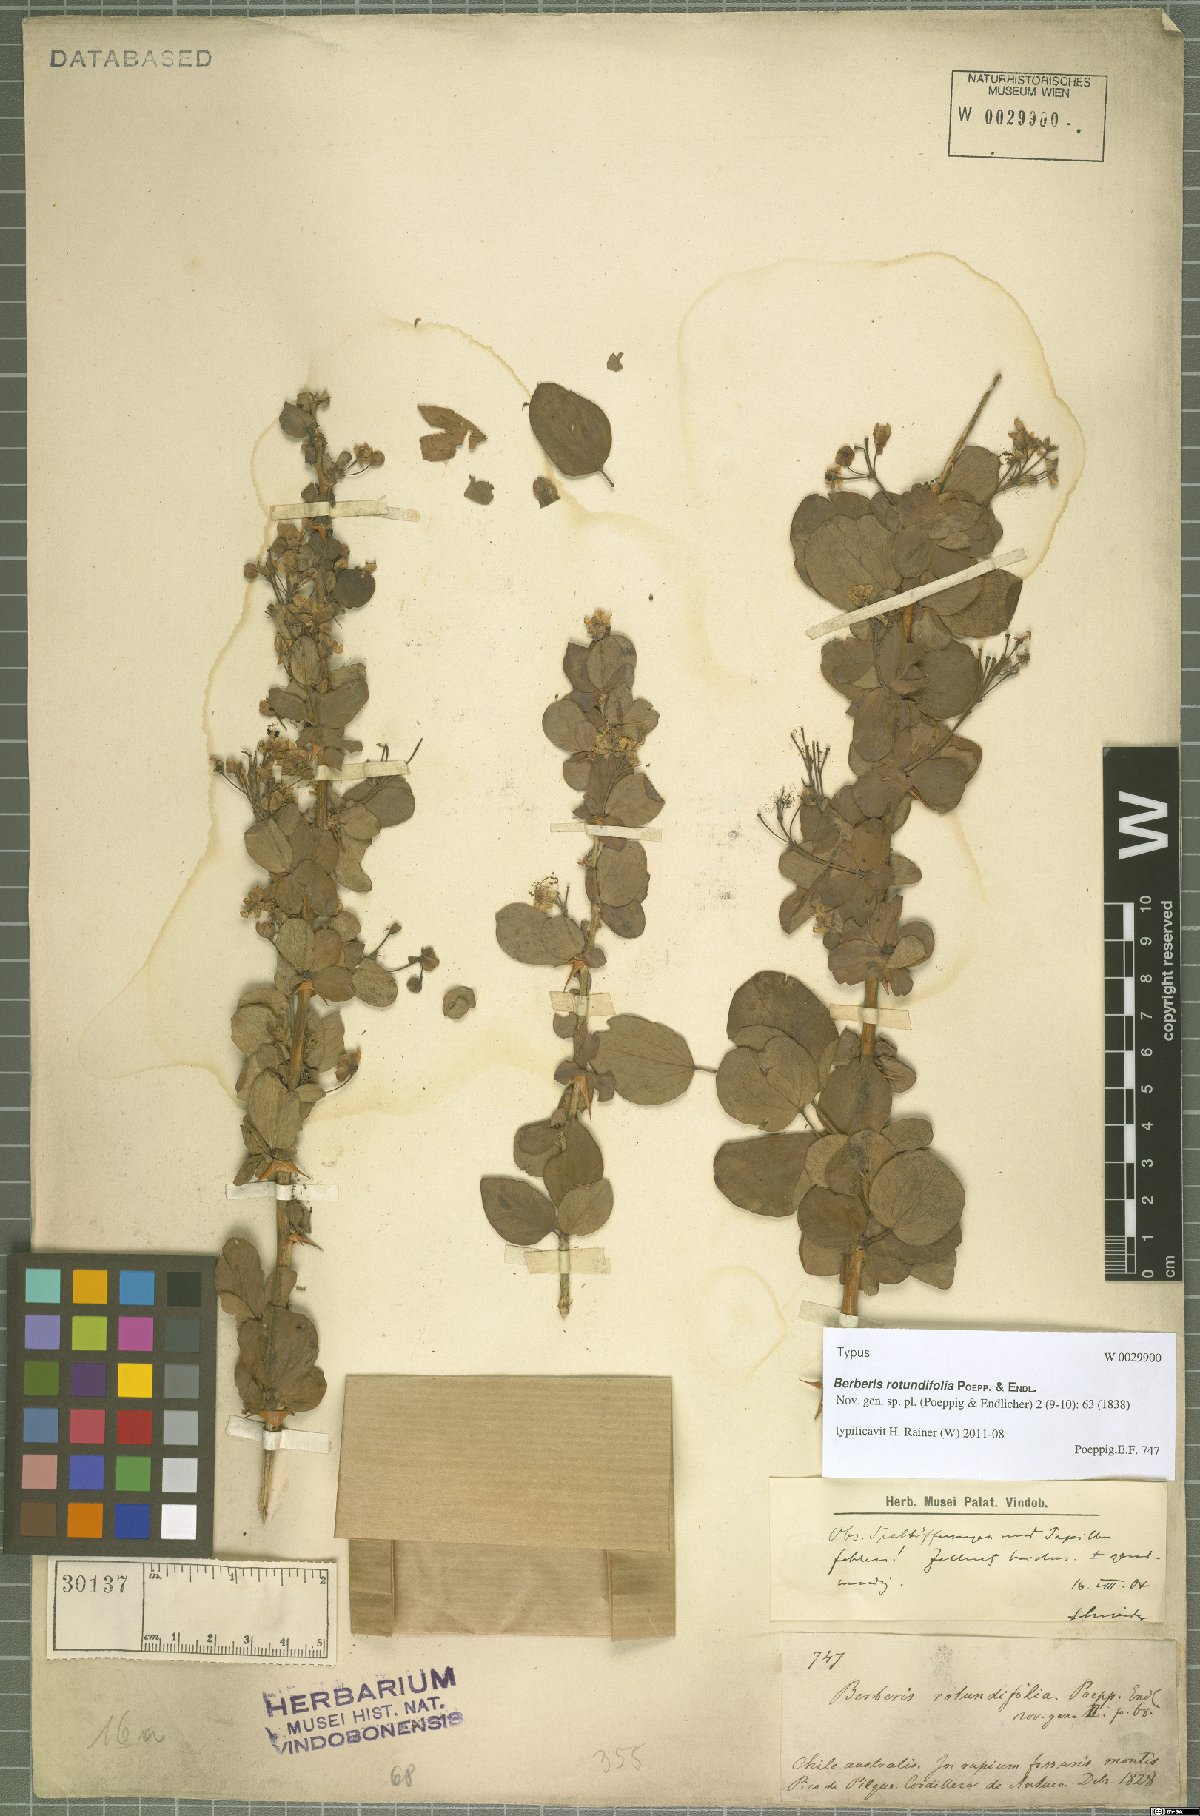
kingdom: Plantae
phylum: Tracheophyta
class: Magnoliopsida
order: Ranunculales
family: Berberidaceae
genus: Berberis
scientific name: Berberis rotundifolia
